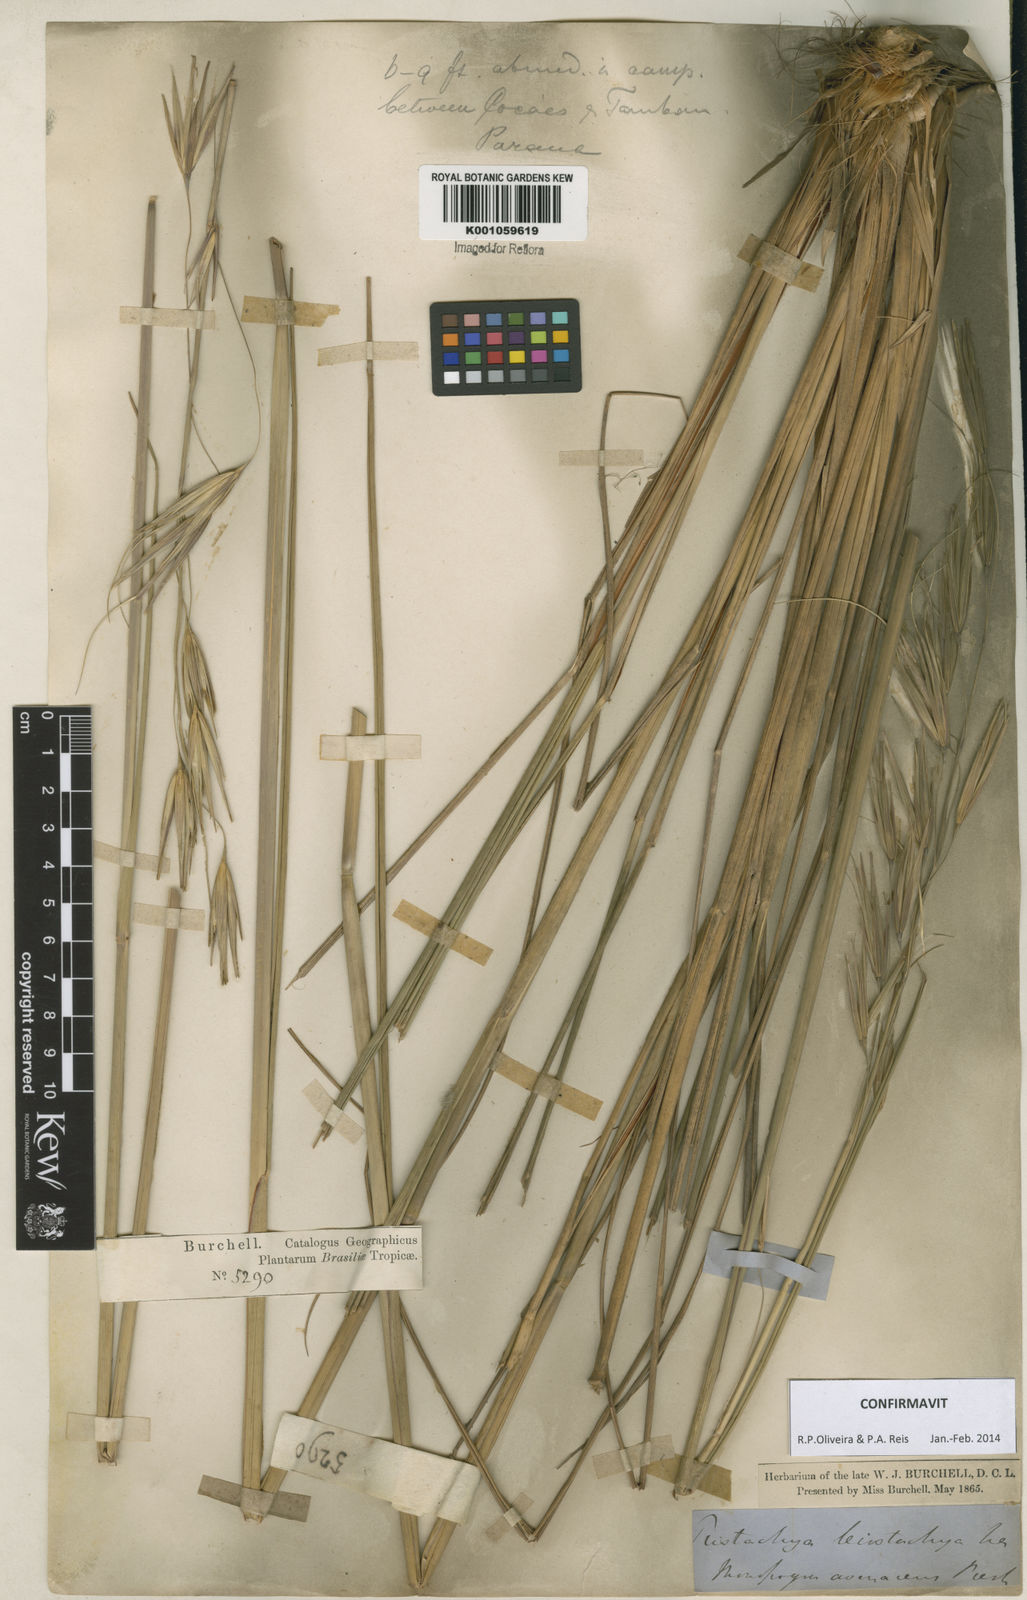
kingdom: Plantae
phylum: Tracheophyta
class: Liliopsida
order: Poales
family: Poaceae
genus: Tristachya
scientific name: Tristachya leiostachya
